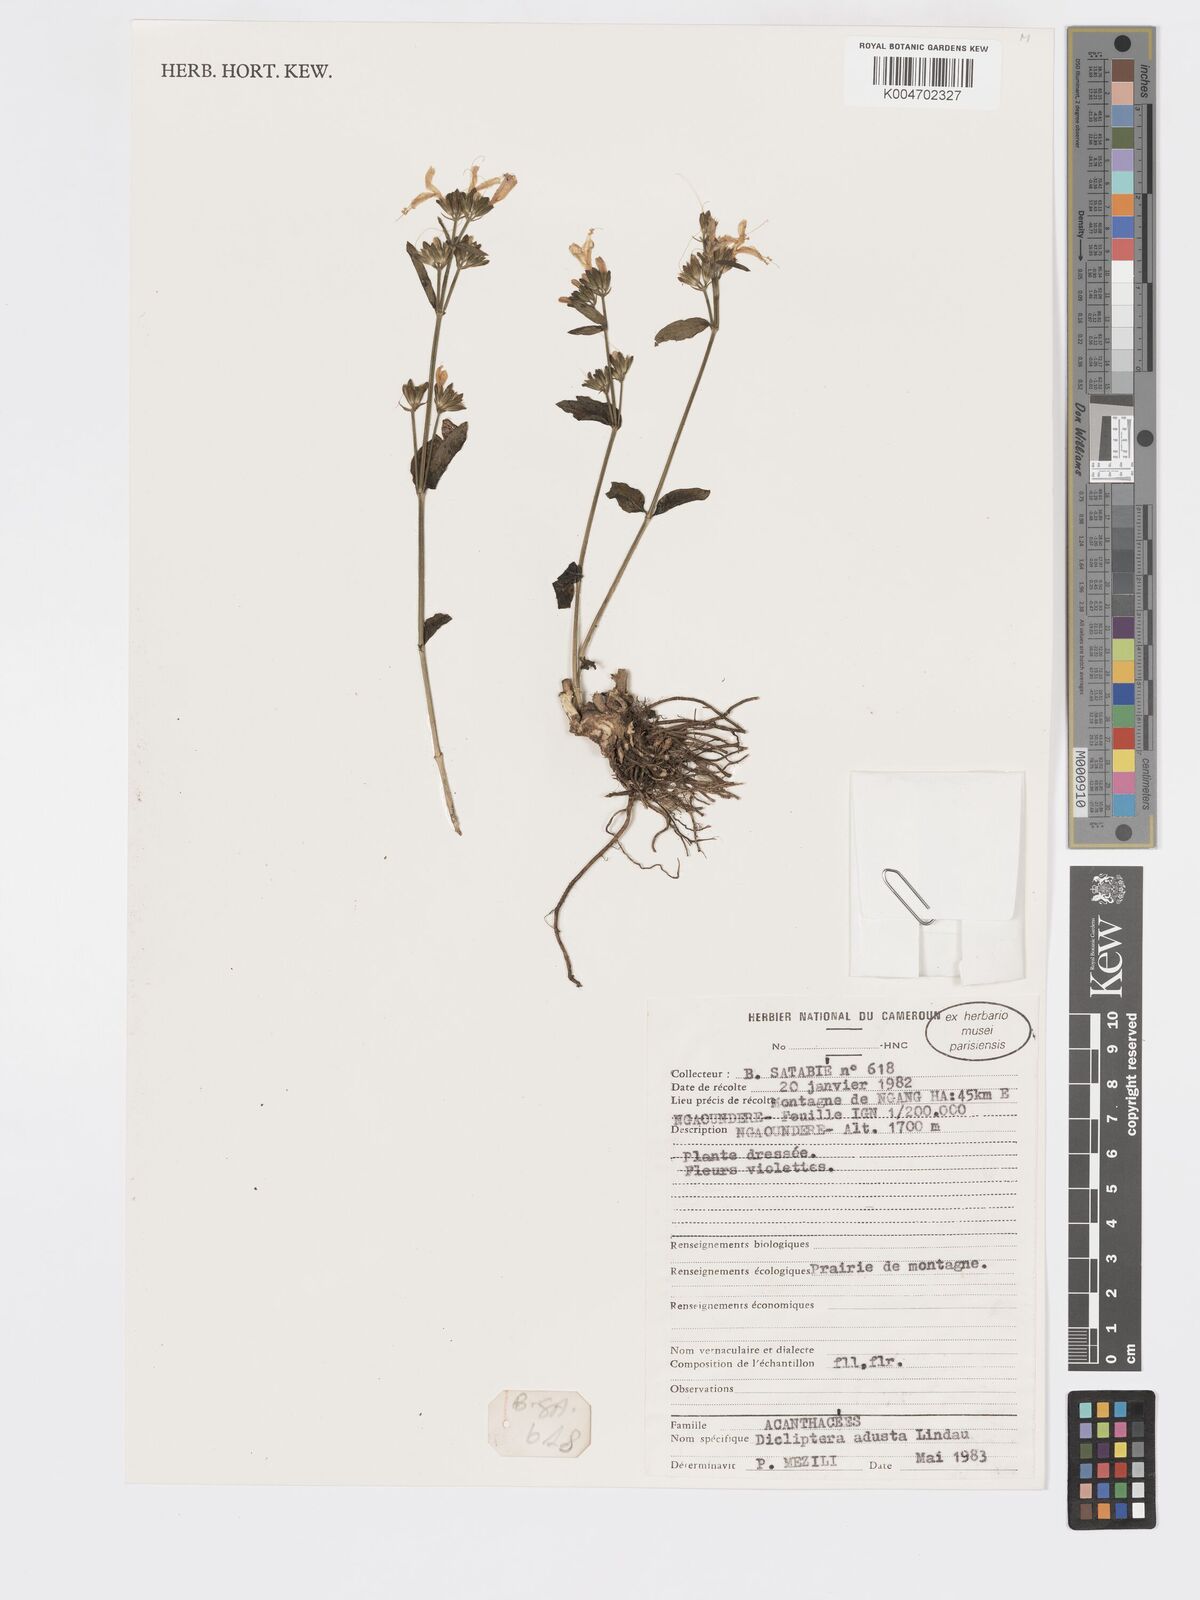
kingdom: Plantae
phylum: Tracheophyta
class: Magnoliopsida
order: Lamiales
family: Acanthaceae
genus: Dicliptera
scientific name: Dicliptera pumila
